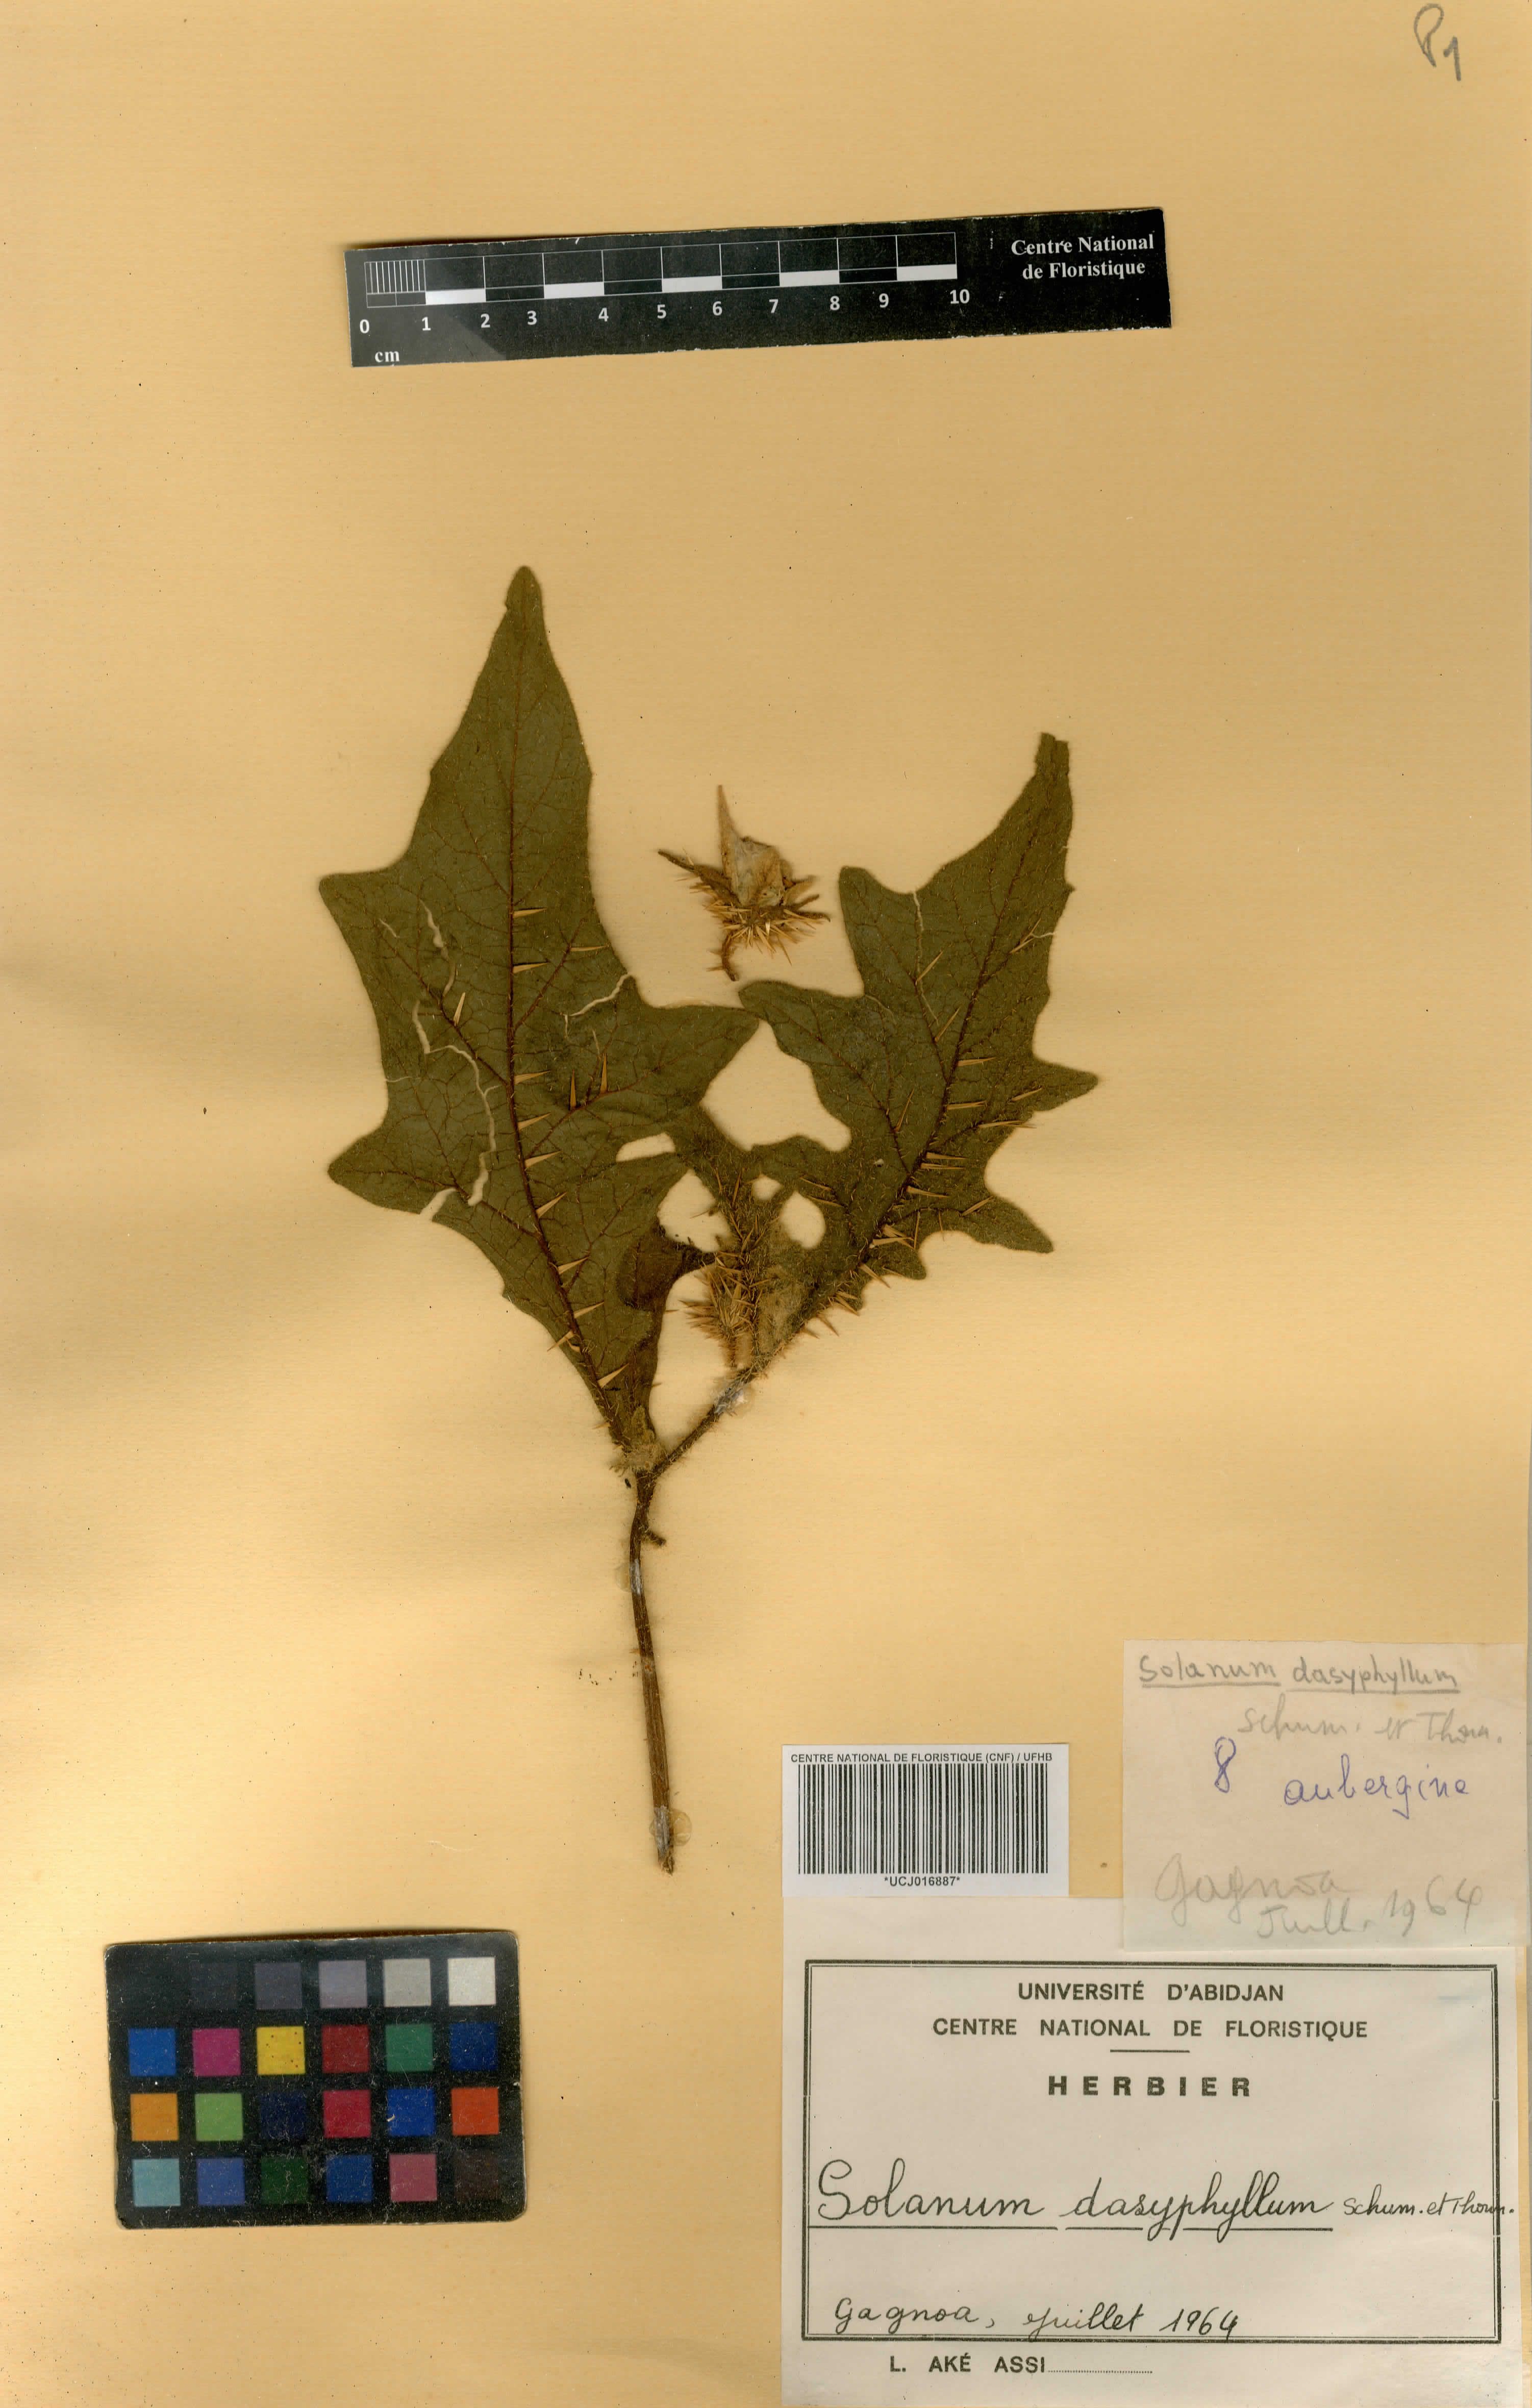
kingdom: Plantae
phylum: Tracheophyta
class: Magnoliopsida
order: Solanales
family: Solanaceae
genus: Solanum
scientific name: Solanum aculeatissimum
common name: Dutch eggplant
